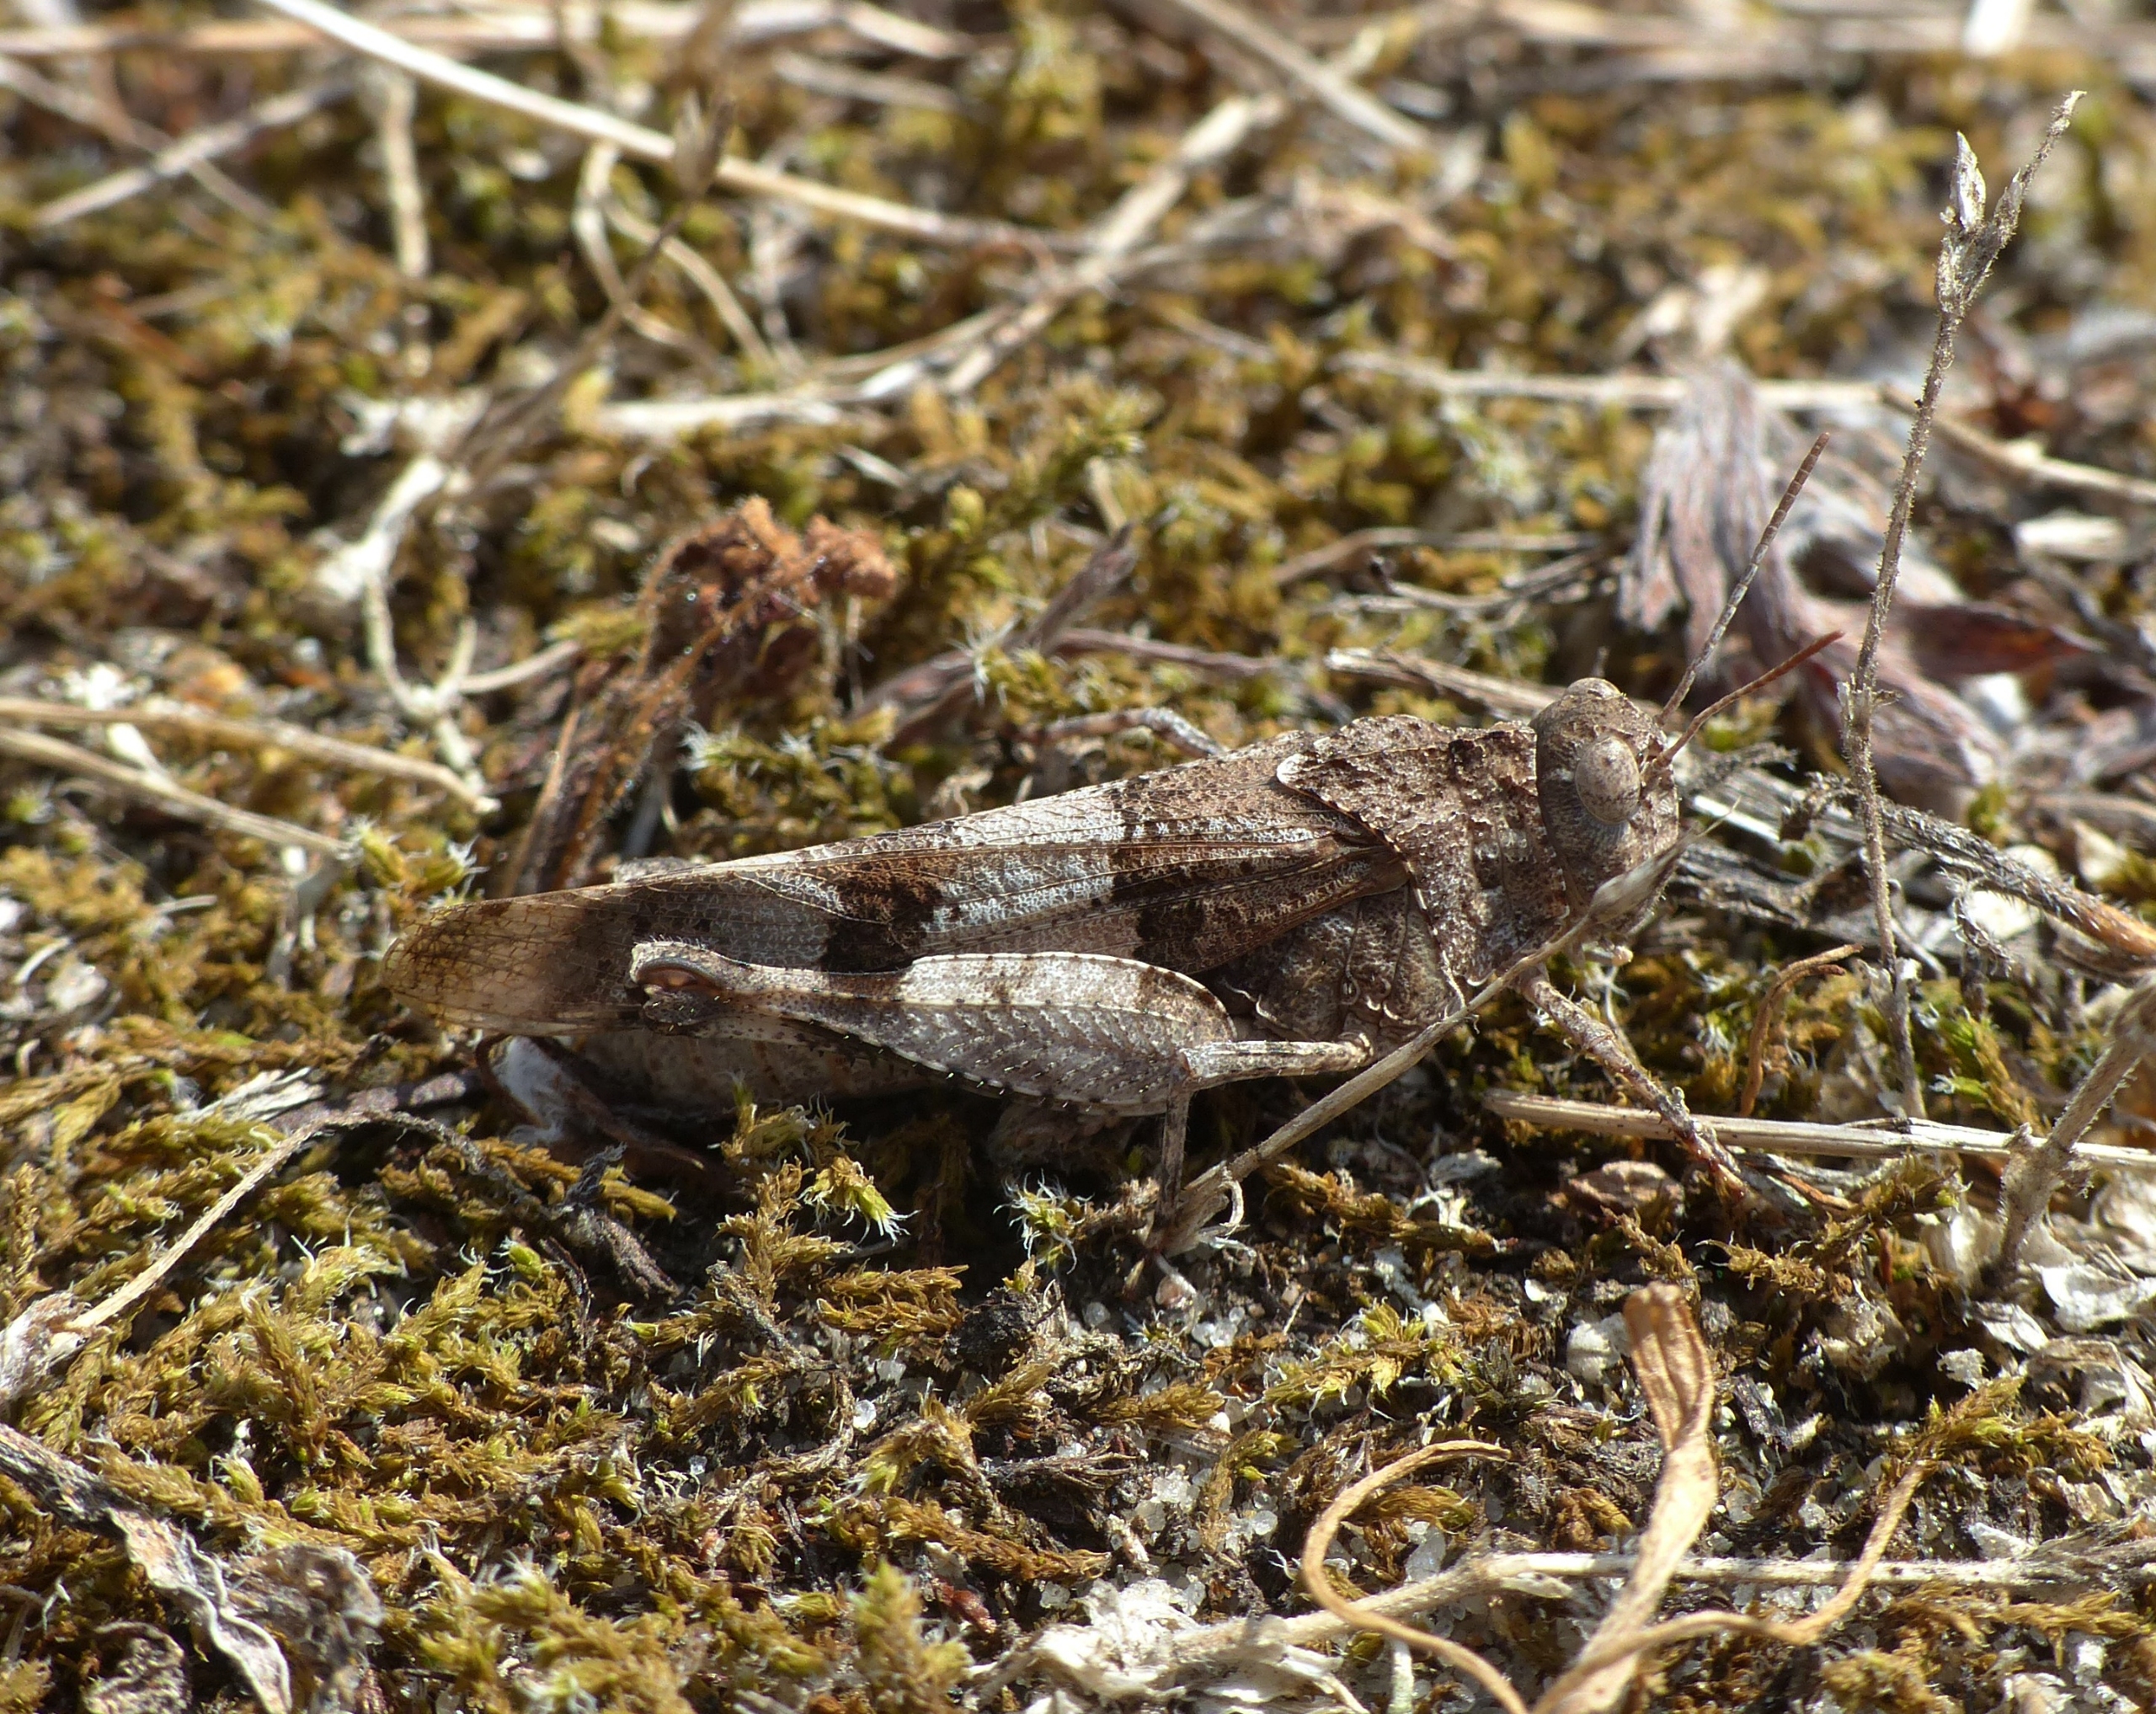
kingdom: Animalia
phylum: Arthropoda
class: Insecta
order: Orthoptera
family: Acrididae
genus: Oedipoda
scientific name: Oedipoda caerulescens
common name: Blåvinget ørkengræshoppe
